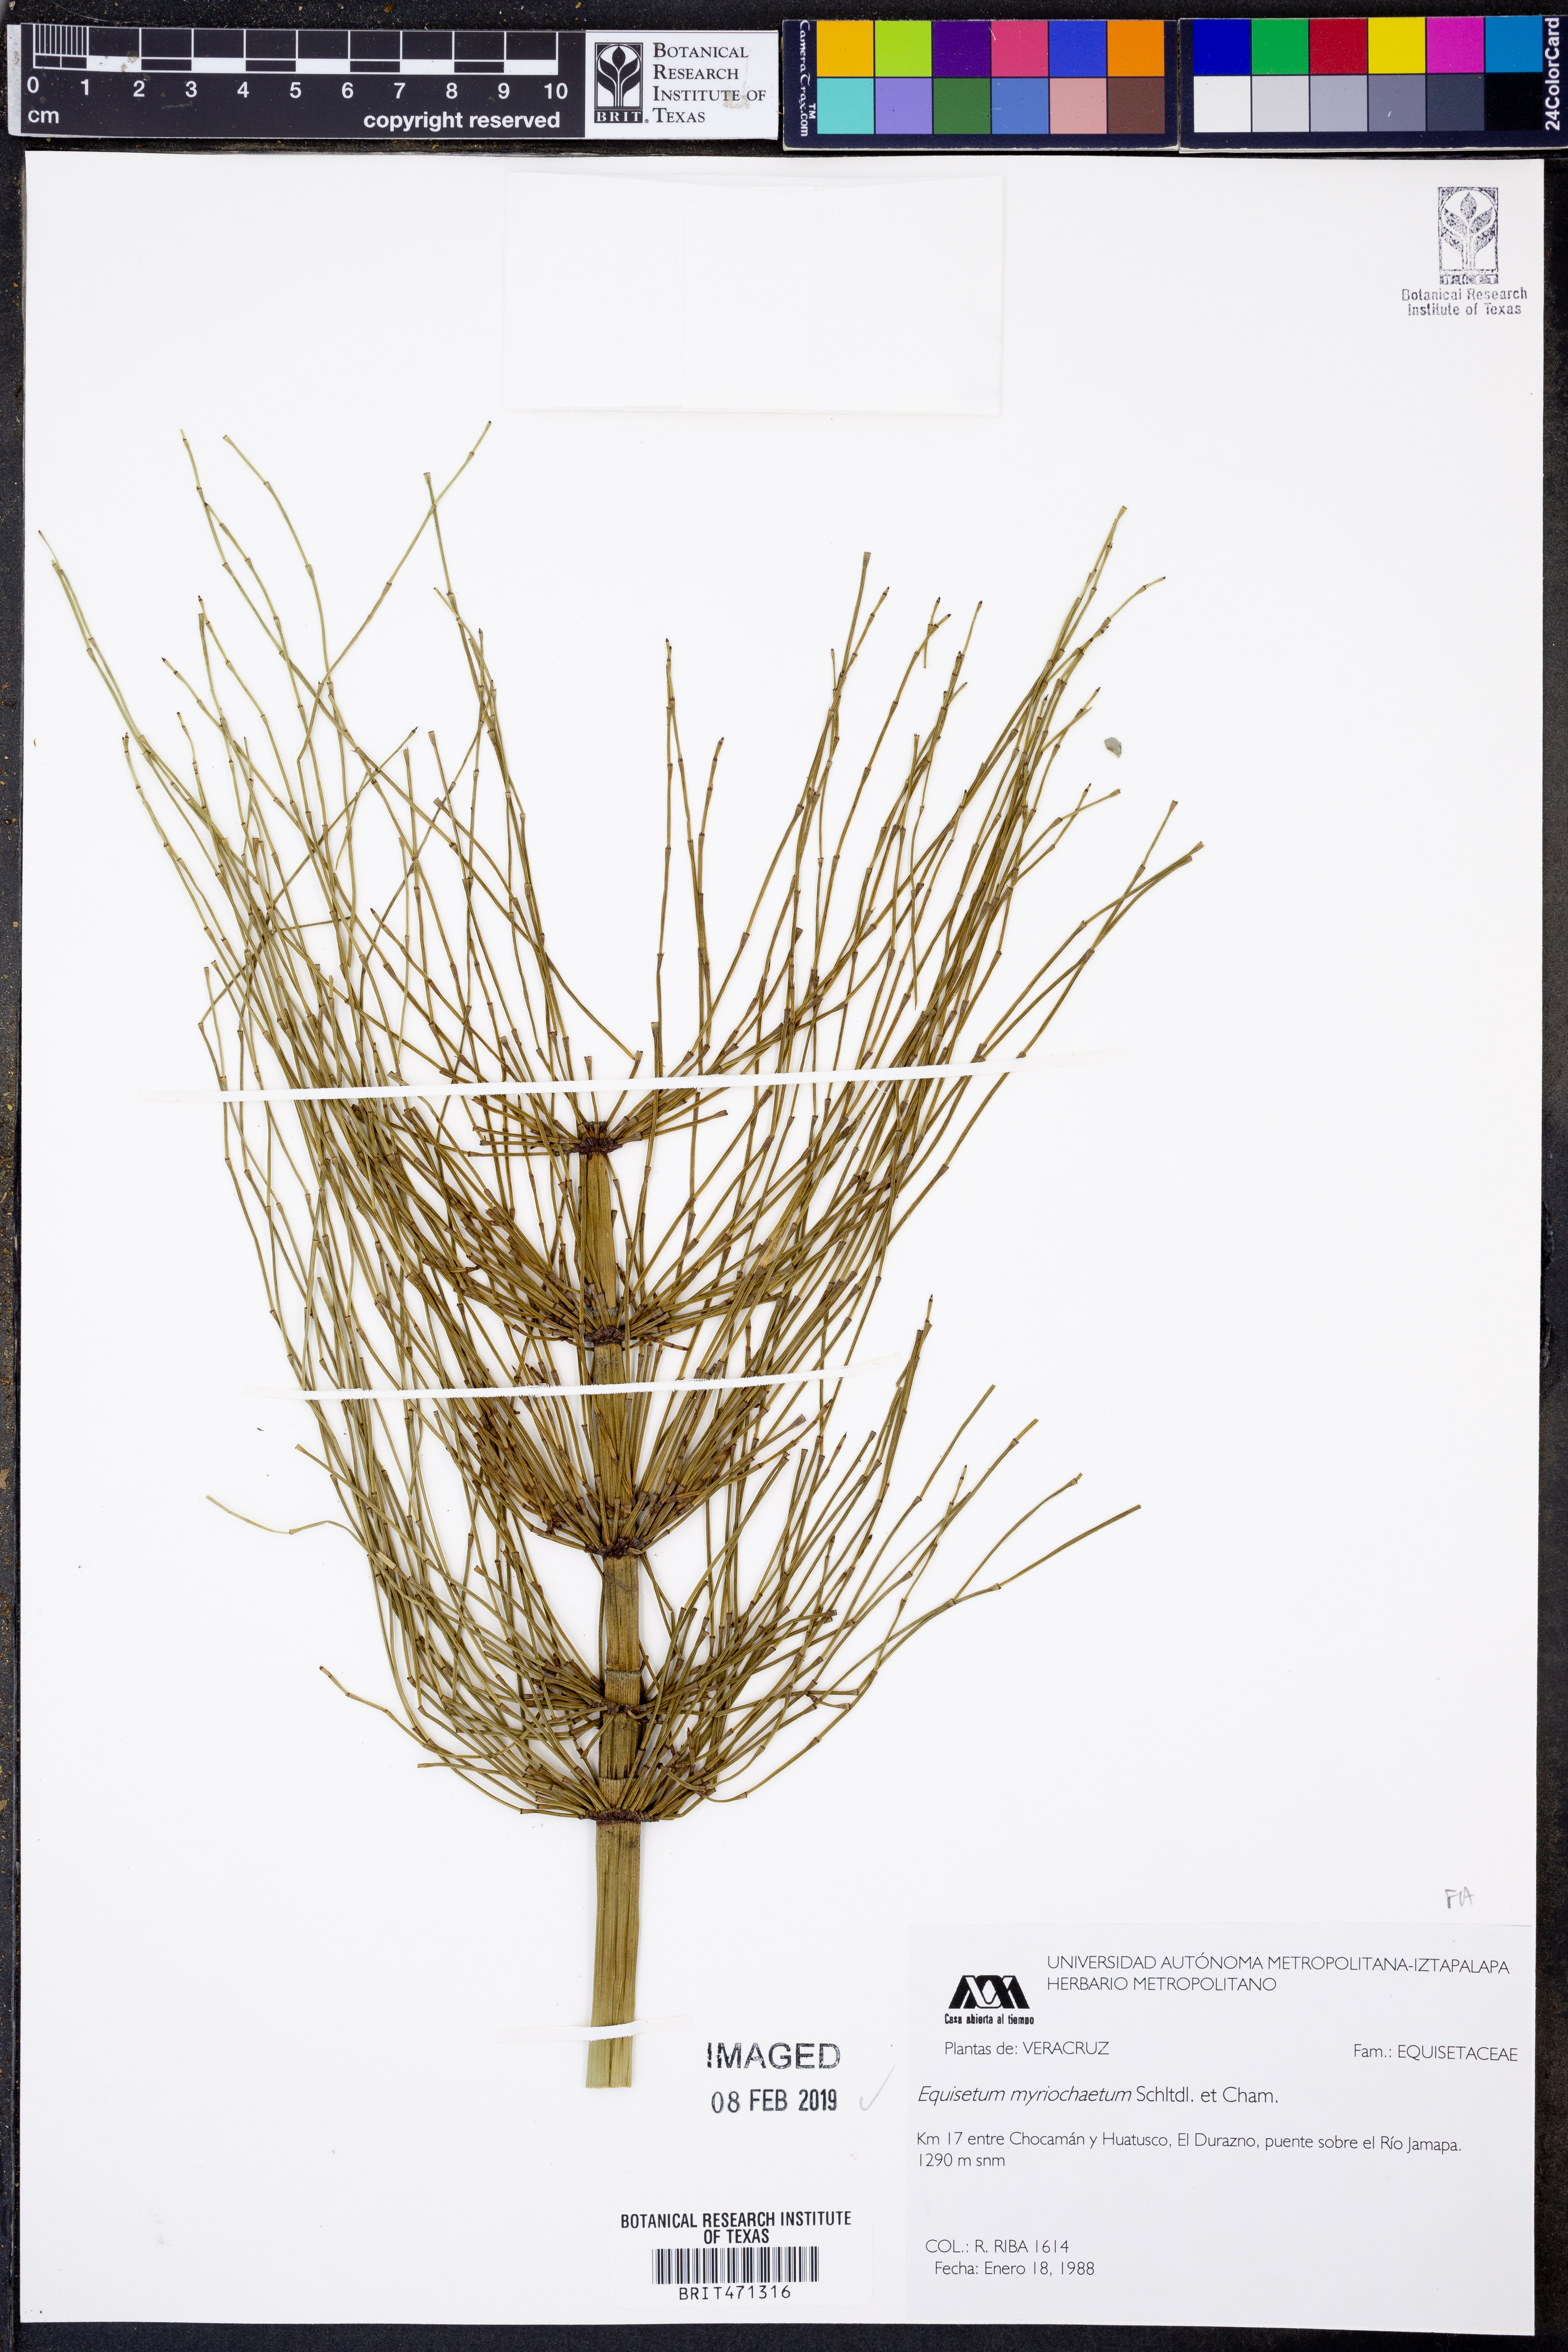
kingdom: Plantae
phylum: Tracheophyta
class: Polypodiopsida
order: Equisetales
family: Equisetaceae
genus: Equisetum
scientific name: Equisetum myriochaetum
